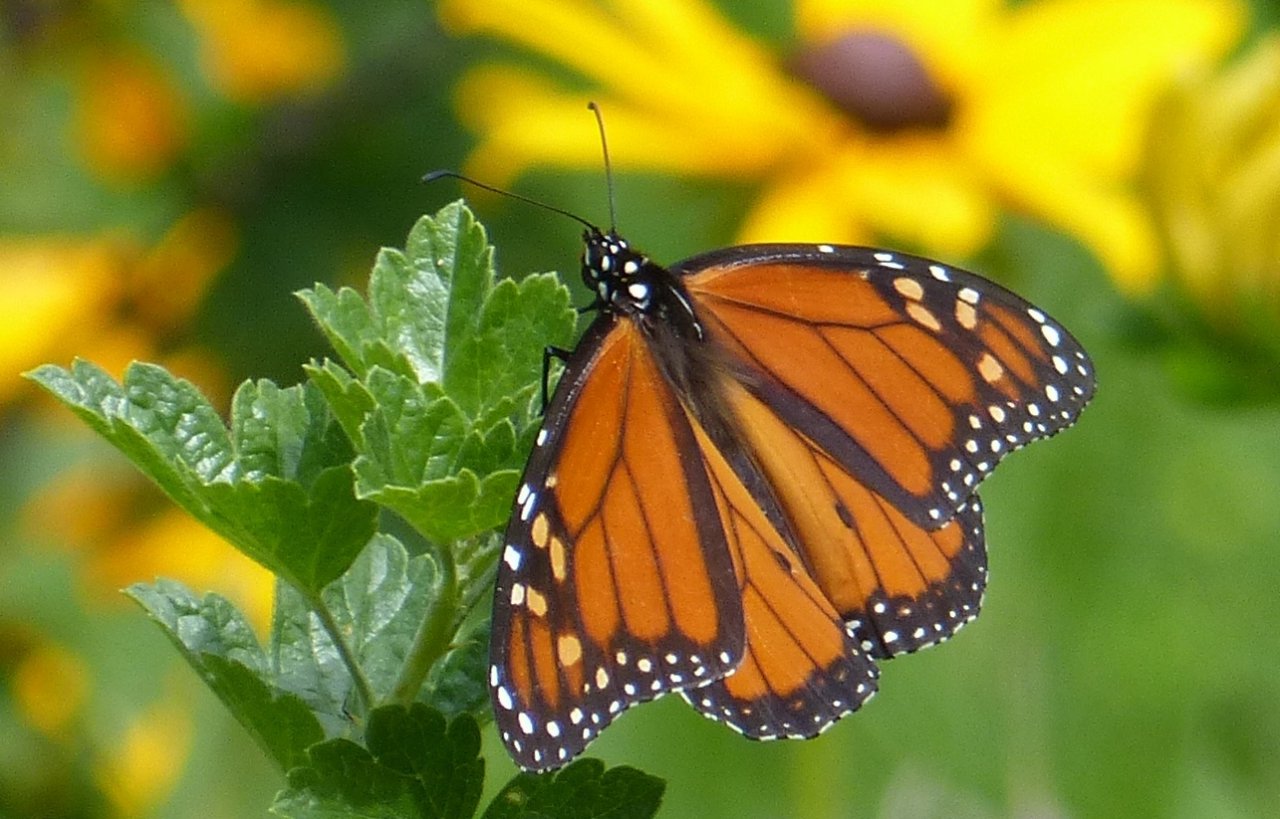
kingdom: Animalia
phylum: Arthropoda
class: Insecta
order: Lepidoptera
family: Nymphalidae
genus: Danaus
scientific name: Danaus plexippus
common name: Monarch
